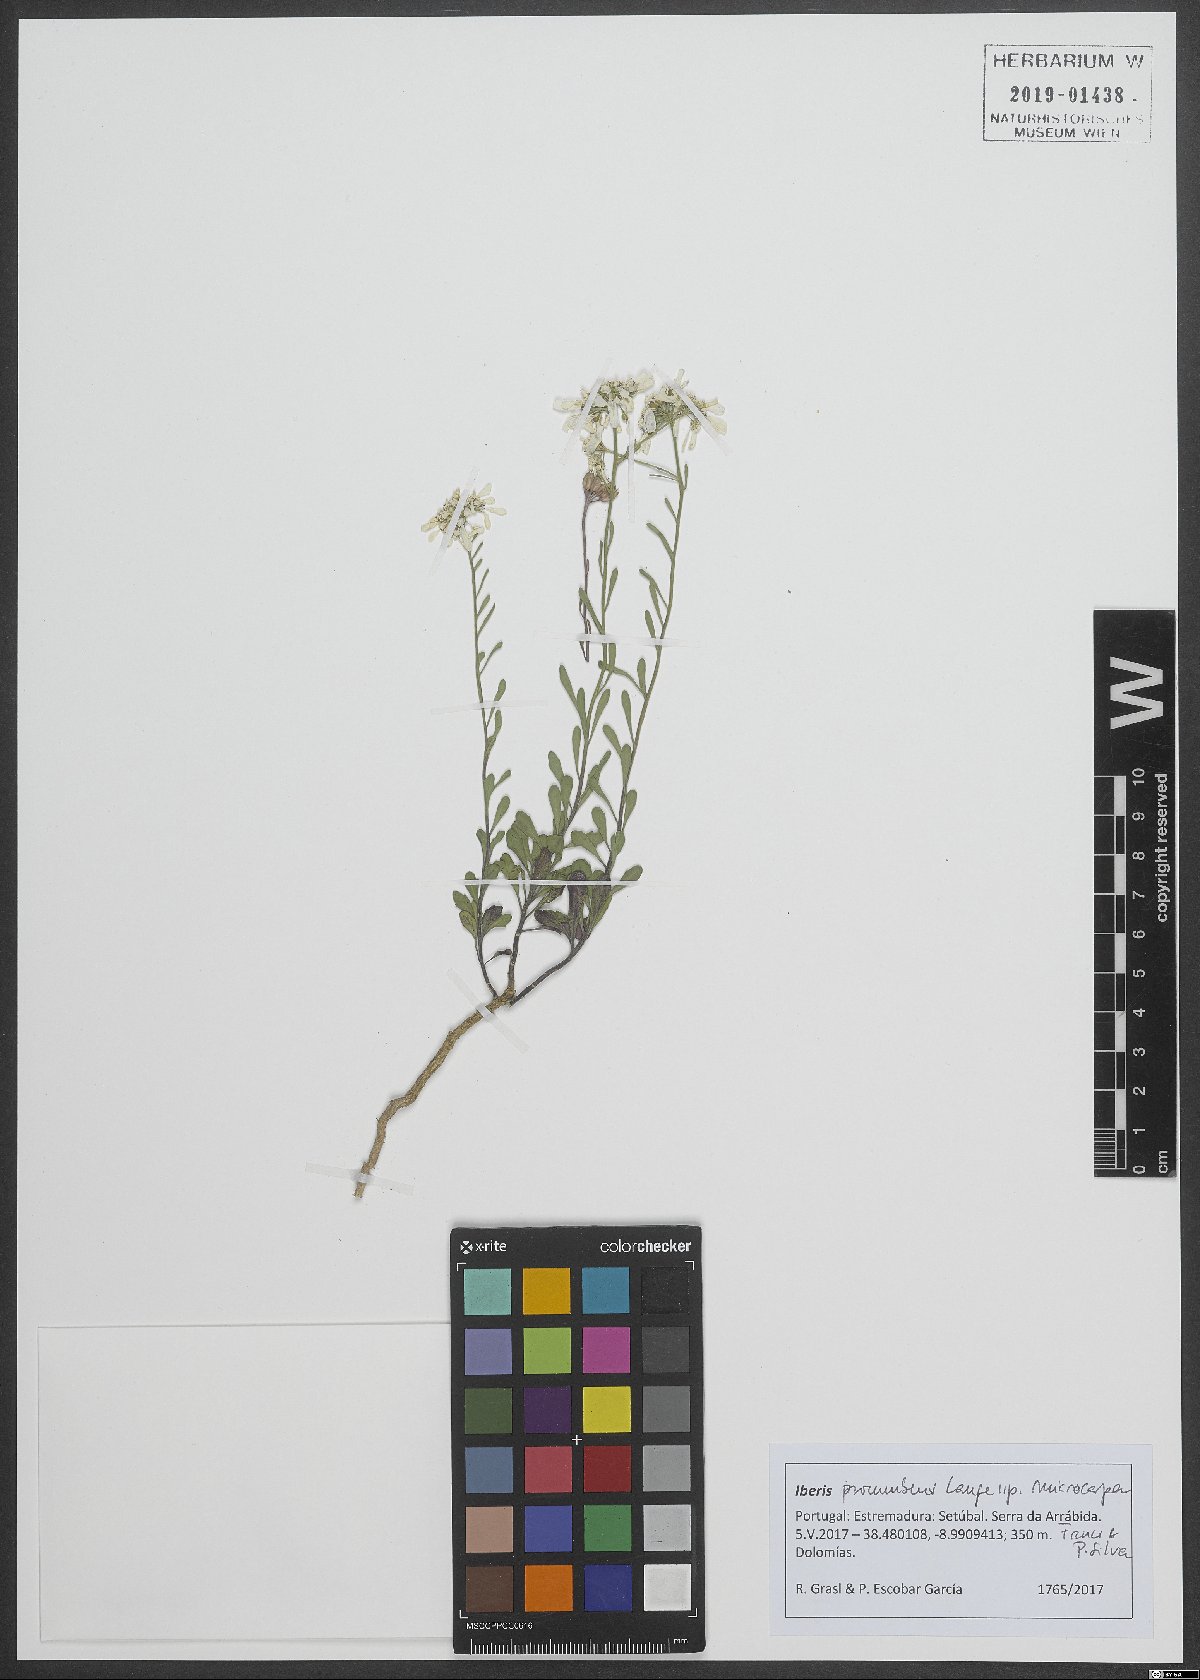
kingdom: Plantae
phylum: Tracheophyta
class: Magnoliopsida
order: Brassicales
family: Brassicaceae
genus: Iberis
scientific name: Iberis procumbens
